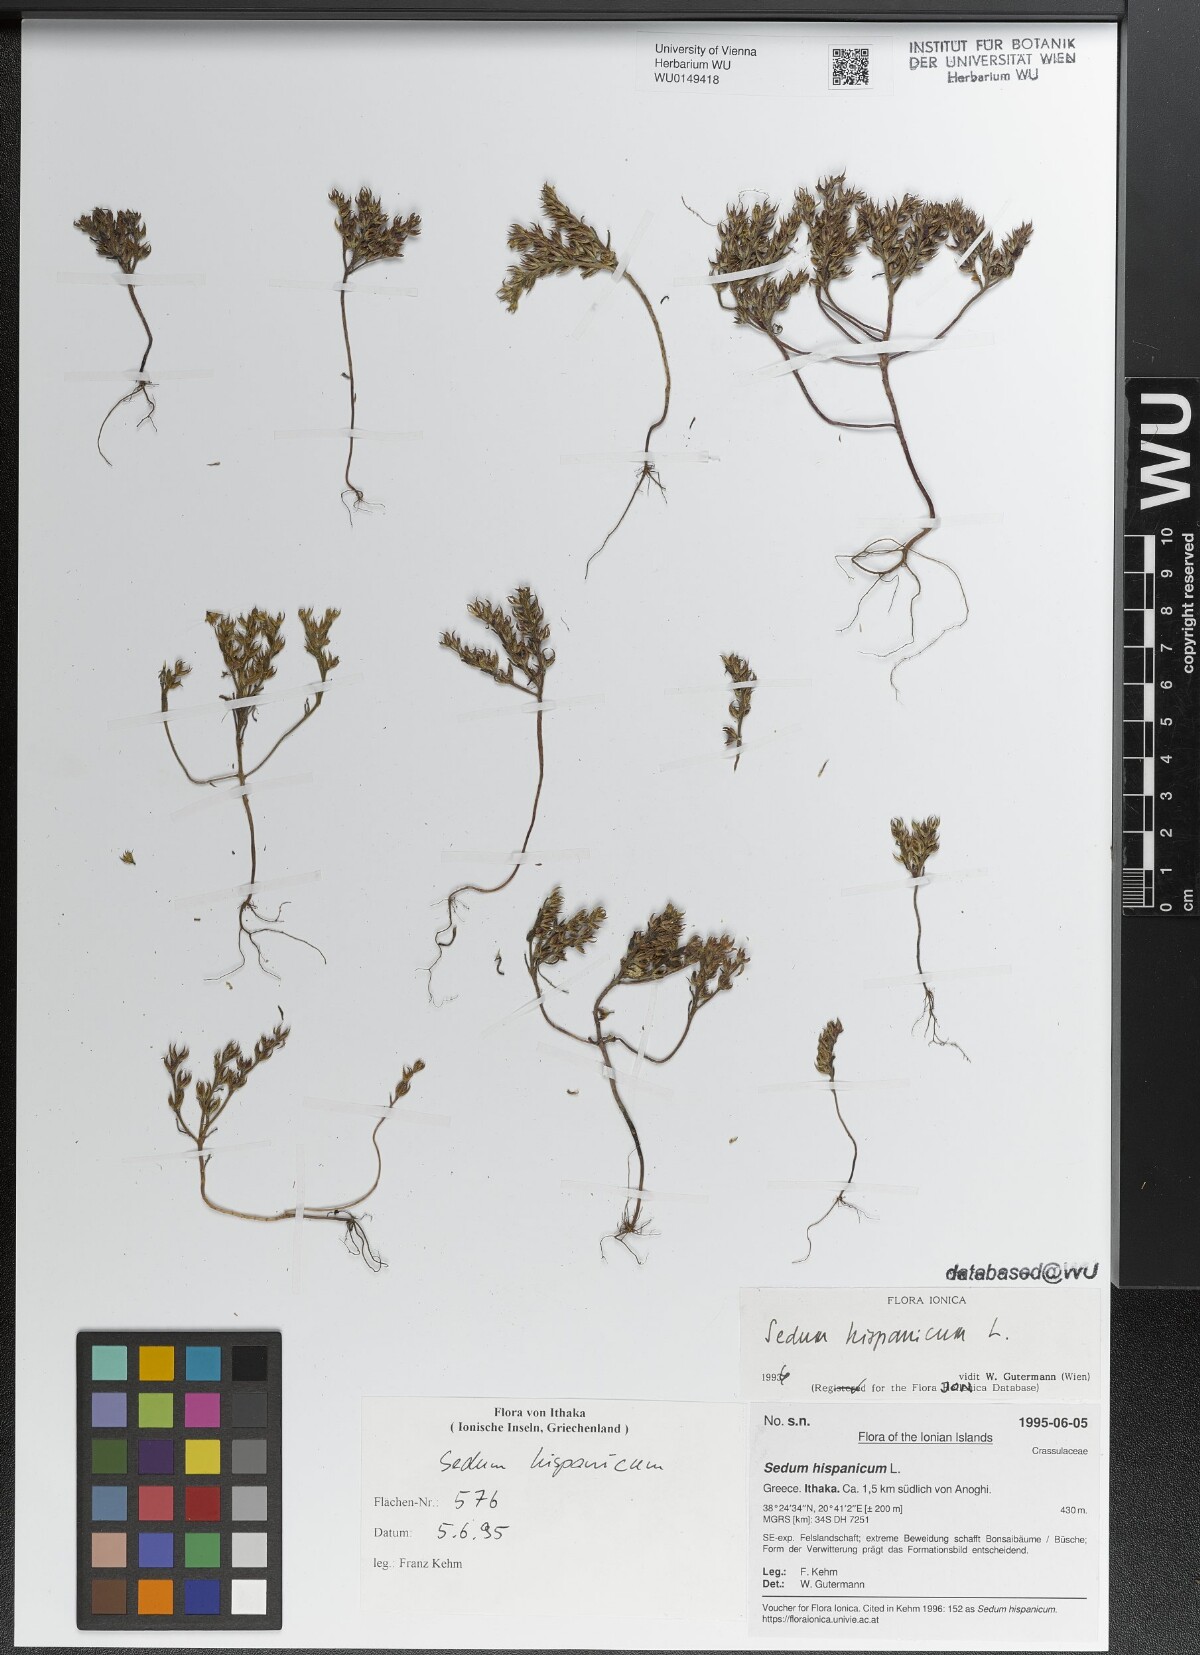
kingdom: Plantae
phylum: Tracheophyta
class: Magnoliopsida
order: Saxifragales
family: Crassulaceae
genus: Sedum
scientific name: Sedum hispanicum
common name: Spanish stonecrop
